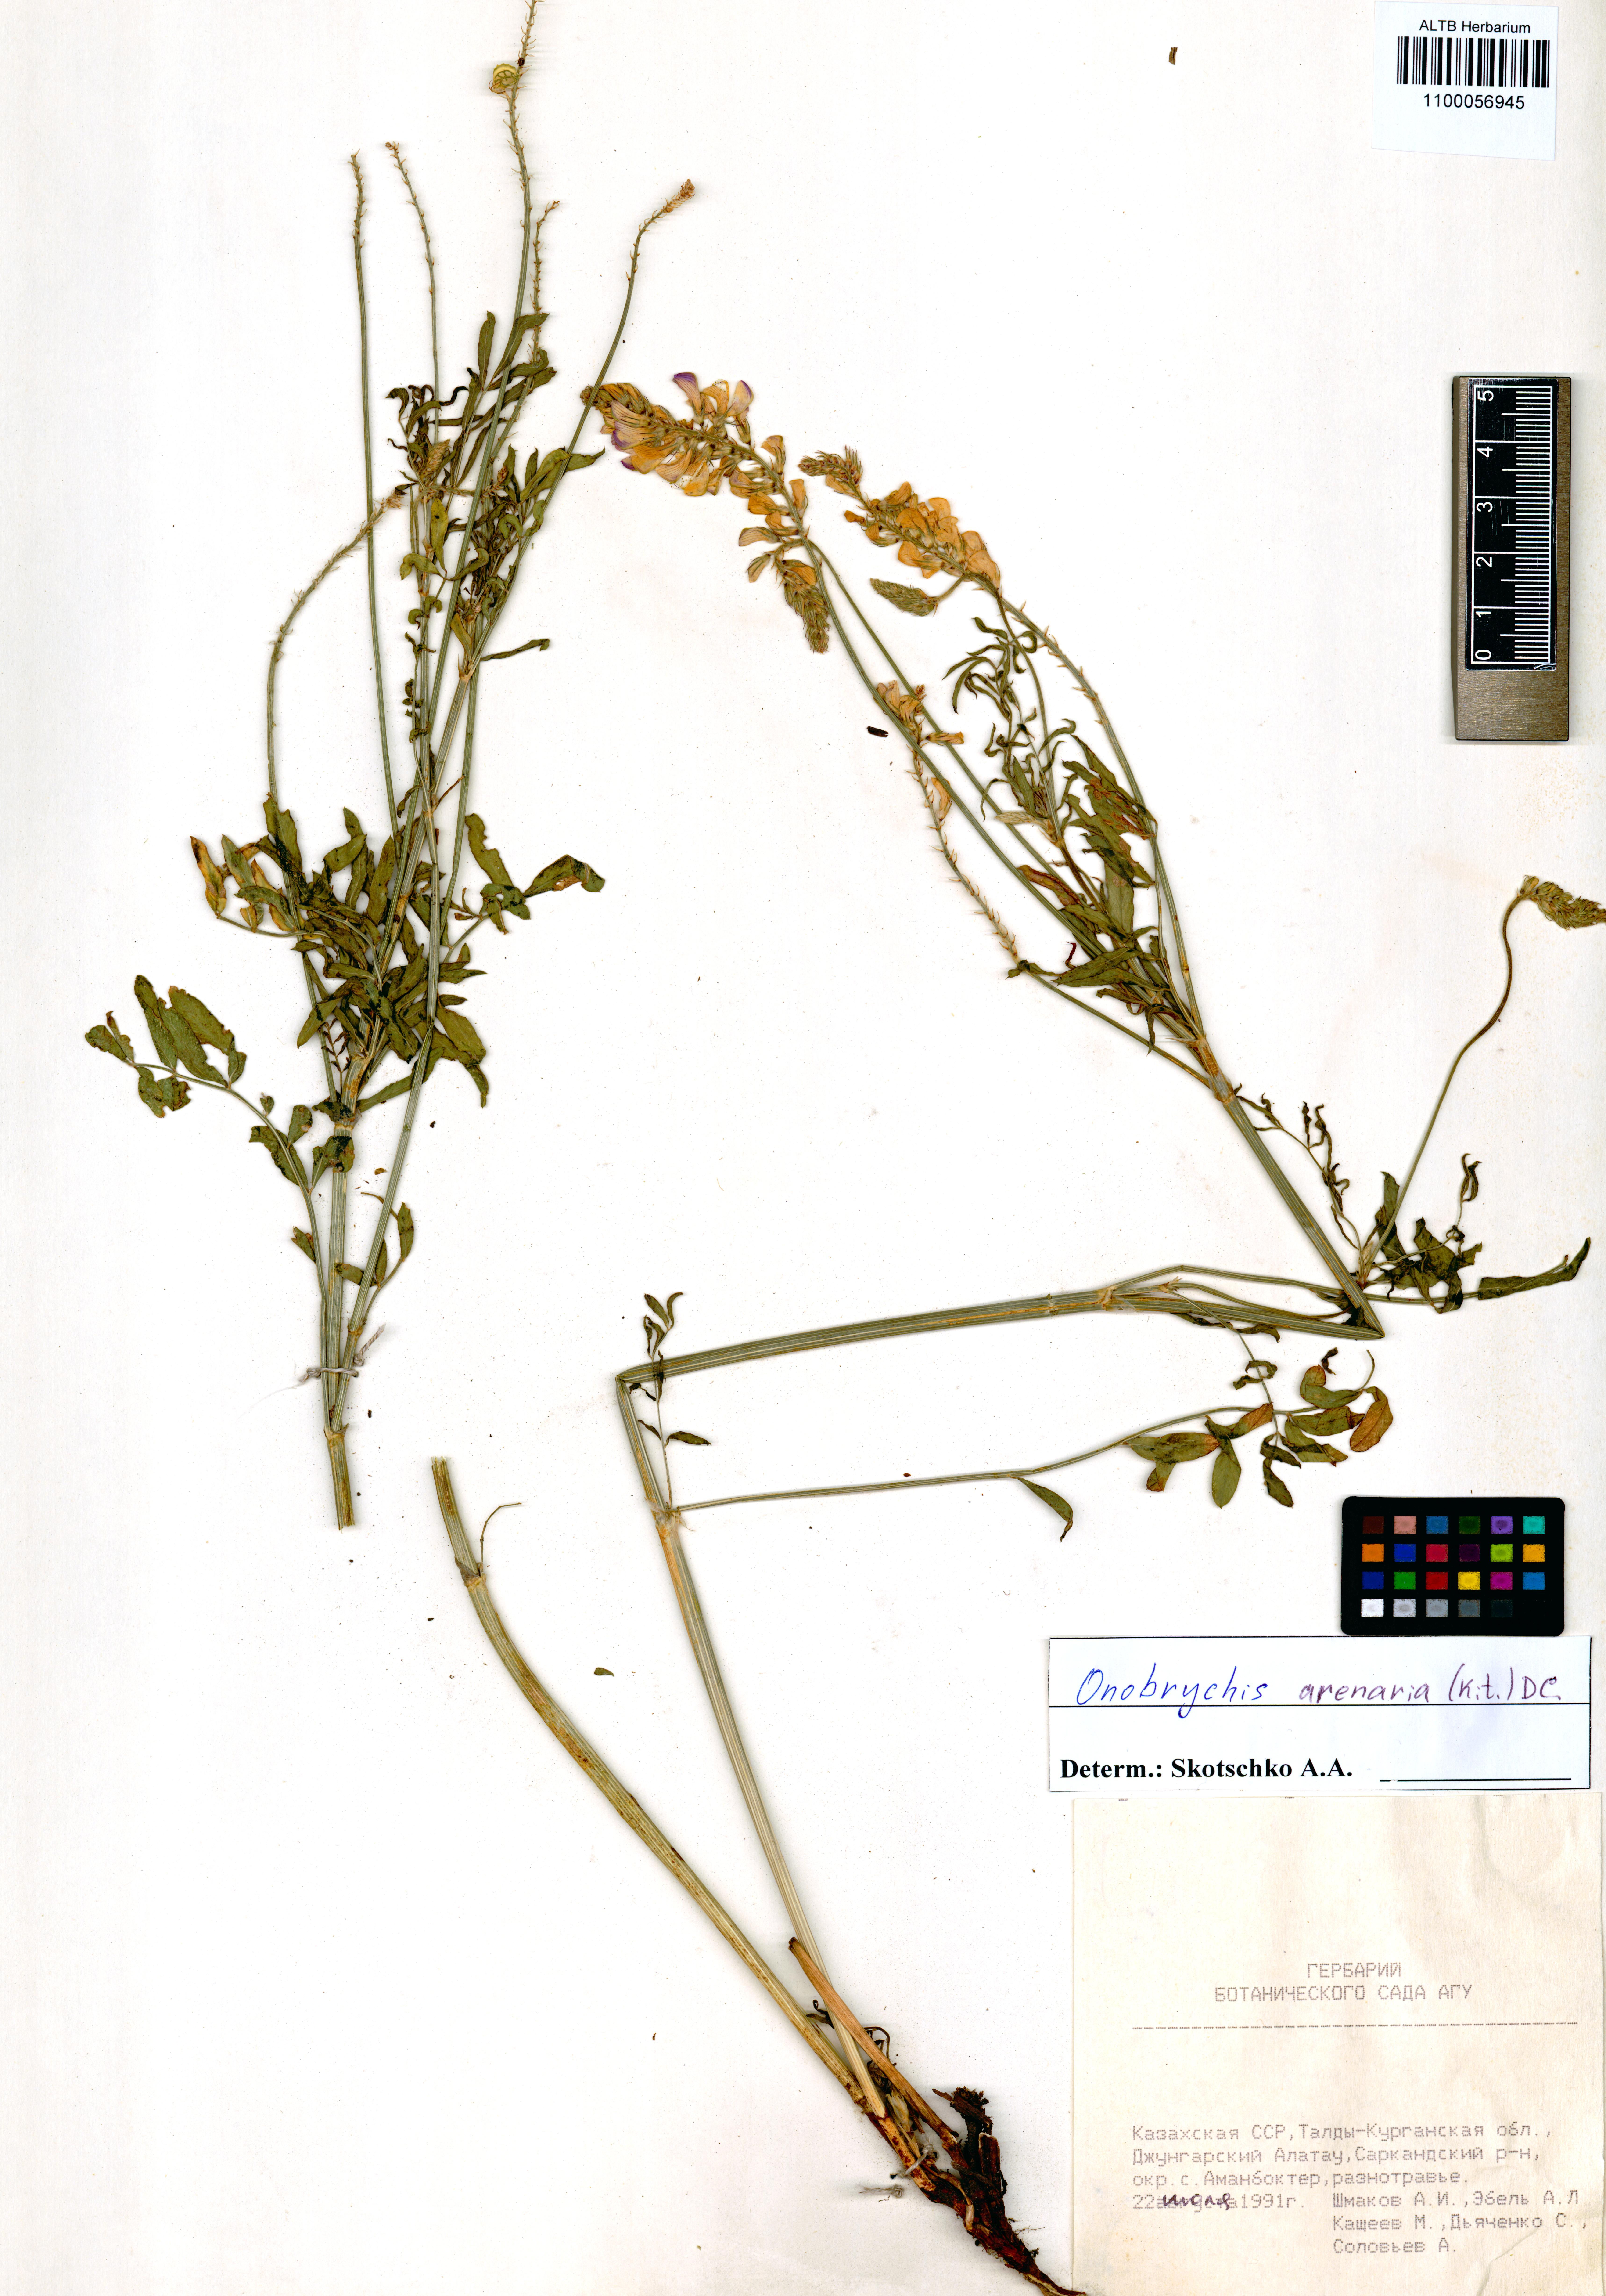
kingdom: Plantae
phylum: Tracheophyta
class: Magnoliopsida
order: Fabales
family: Fabaceae
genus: Onobrychis
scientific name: Onobrychis arenaria
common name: Sand esparcet
